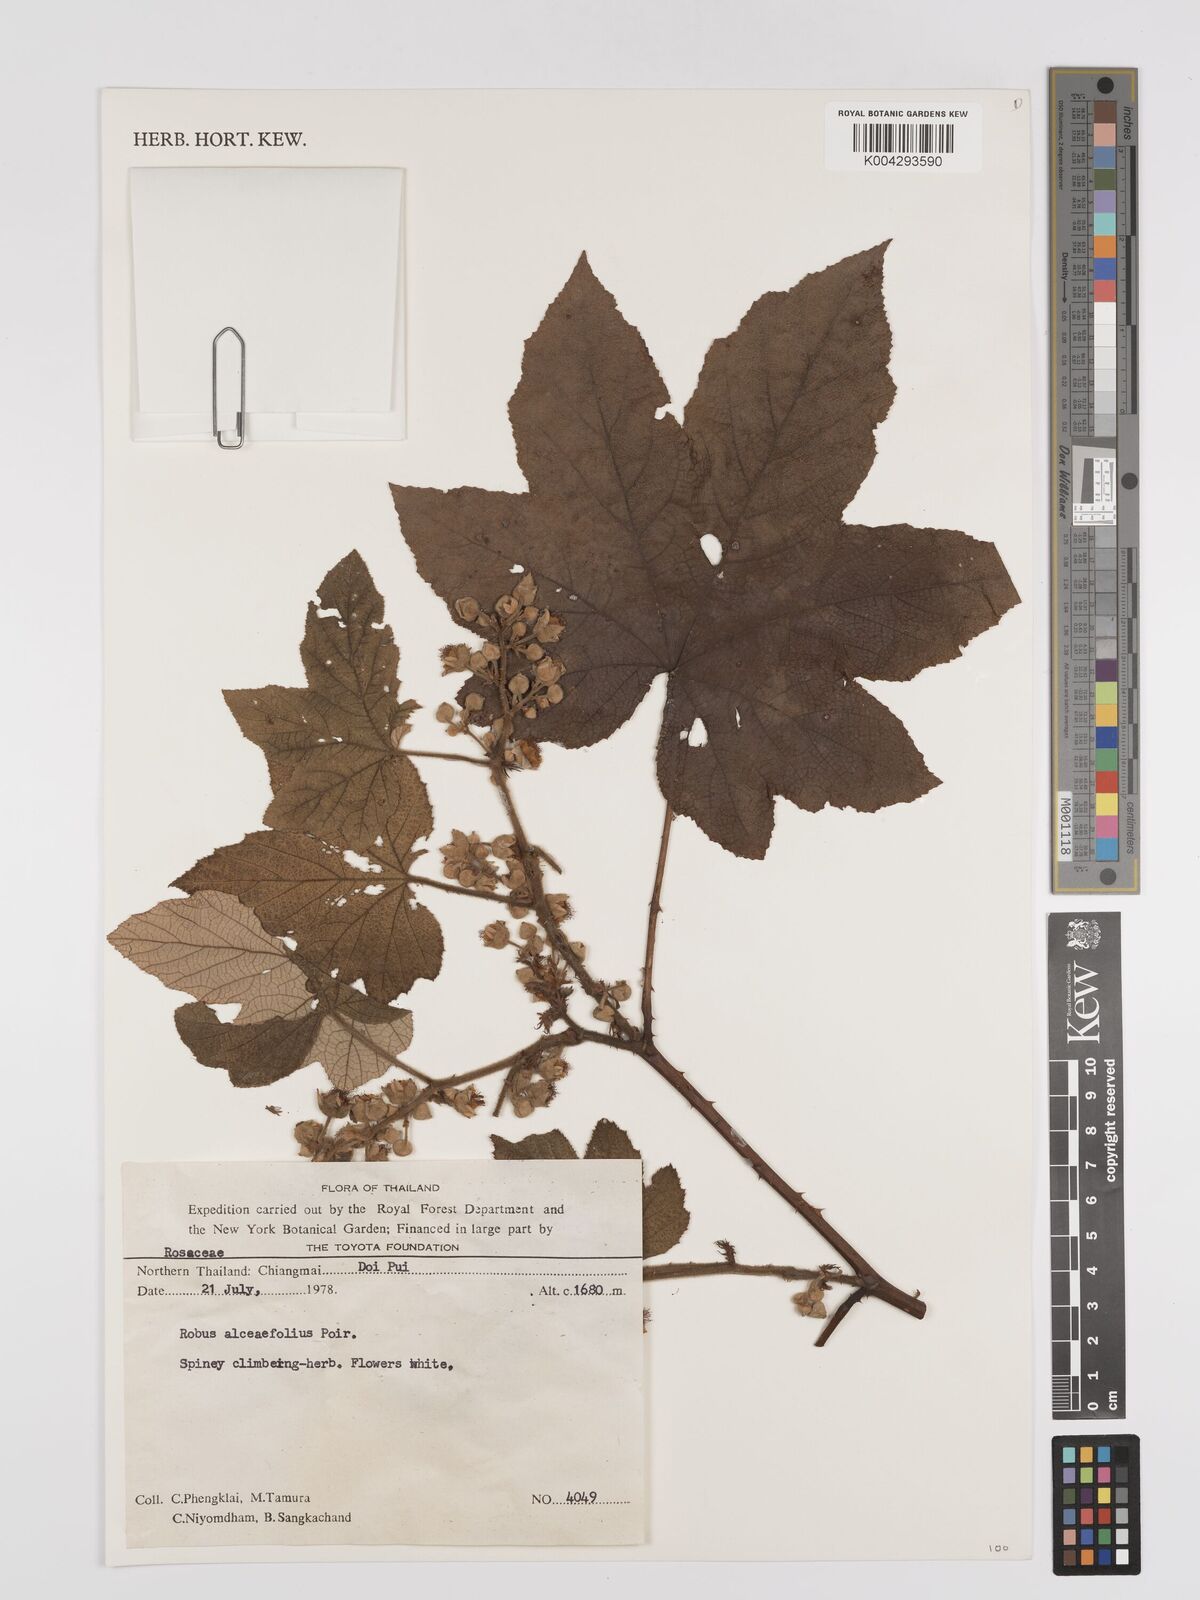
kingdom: Plantae
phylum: Tracheophyta
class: Magnoliopsida
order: Rosales
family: Rosaceae
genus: Rubus
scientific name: Rubus alceifolius
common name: Giant bramble
